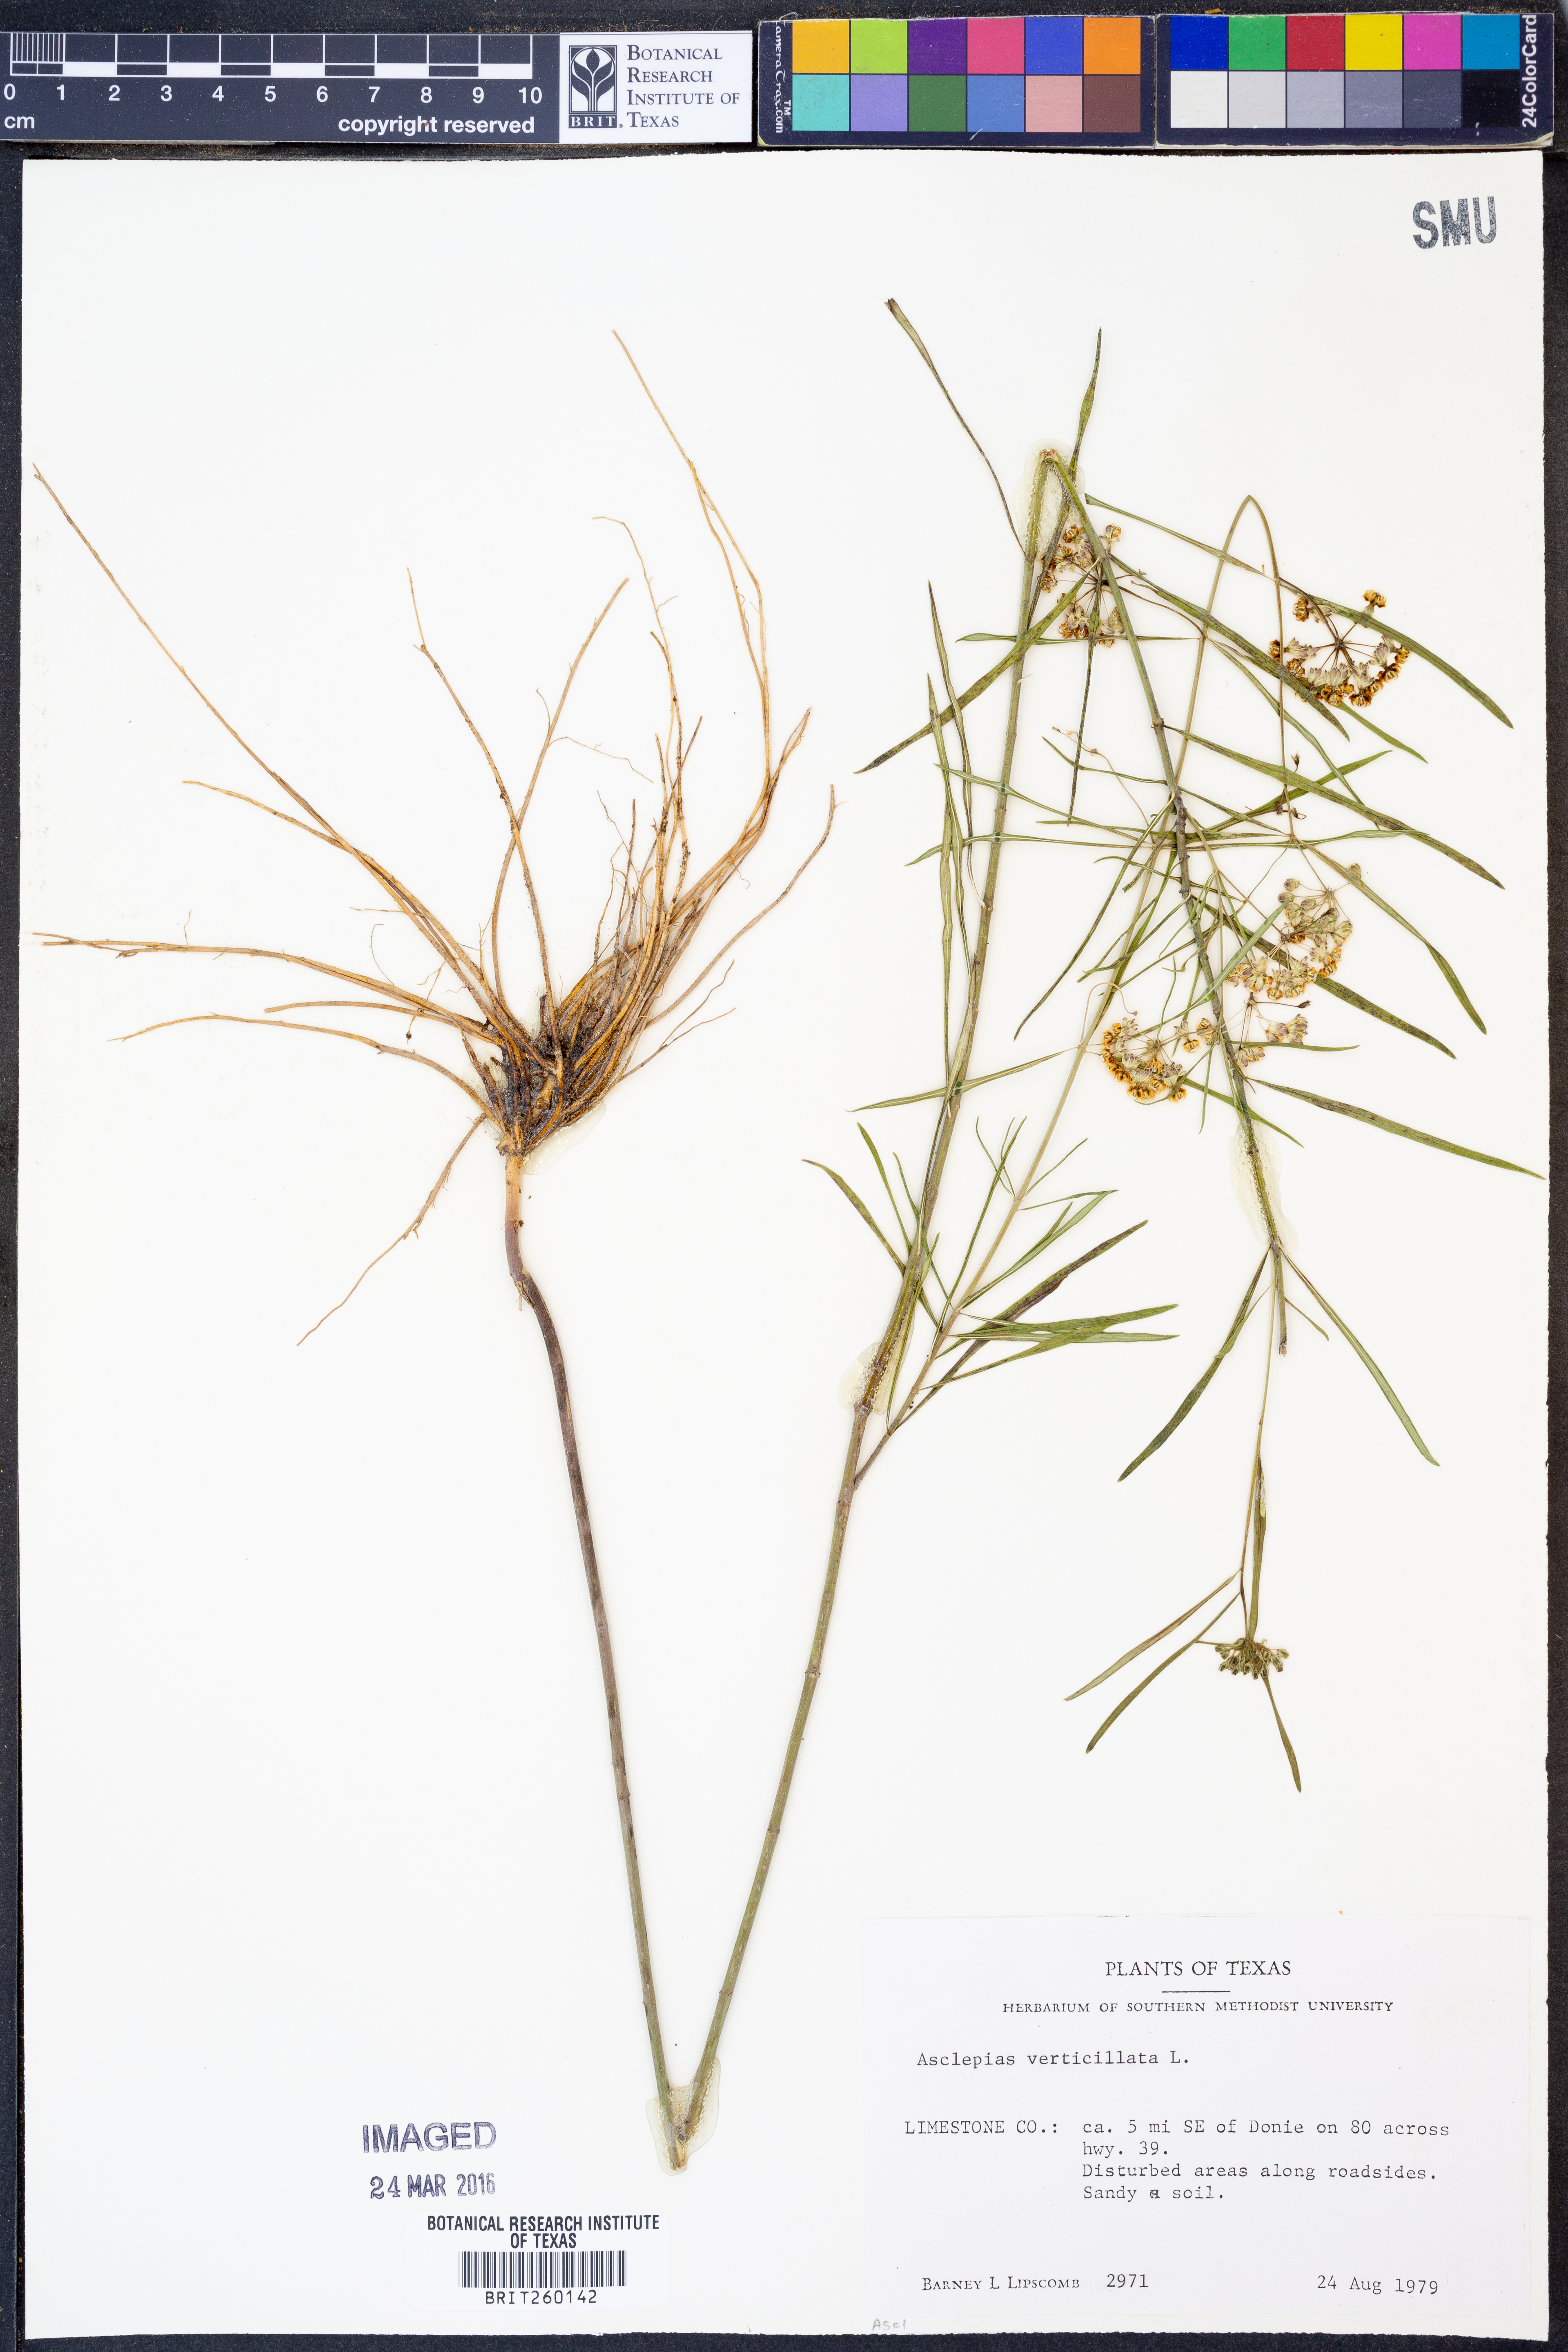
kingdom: Plantae
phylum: Tracheophyta
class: Magnoliopsida
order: Gentianales
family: Apocynaceae
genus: Asclepias
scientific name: Asclepias verticillata
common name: Eastern whorled milkweed
